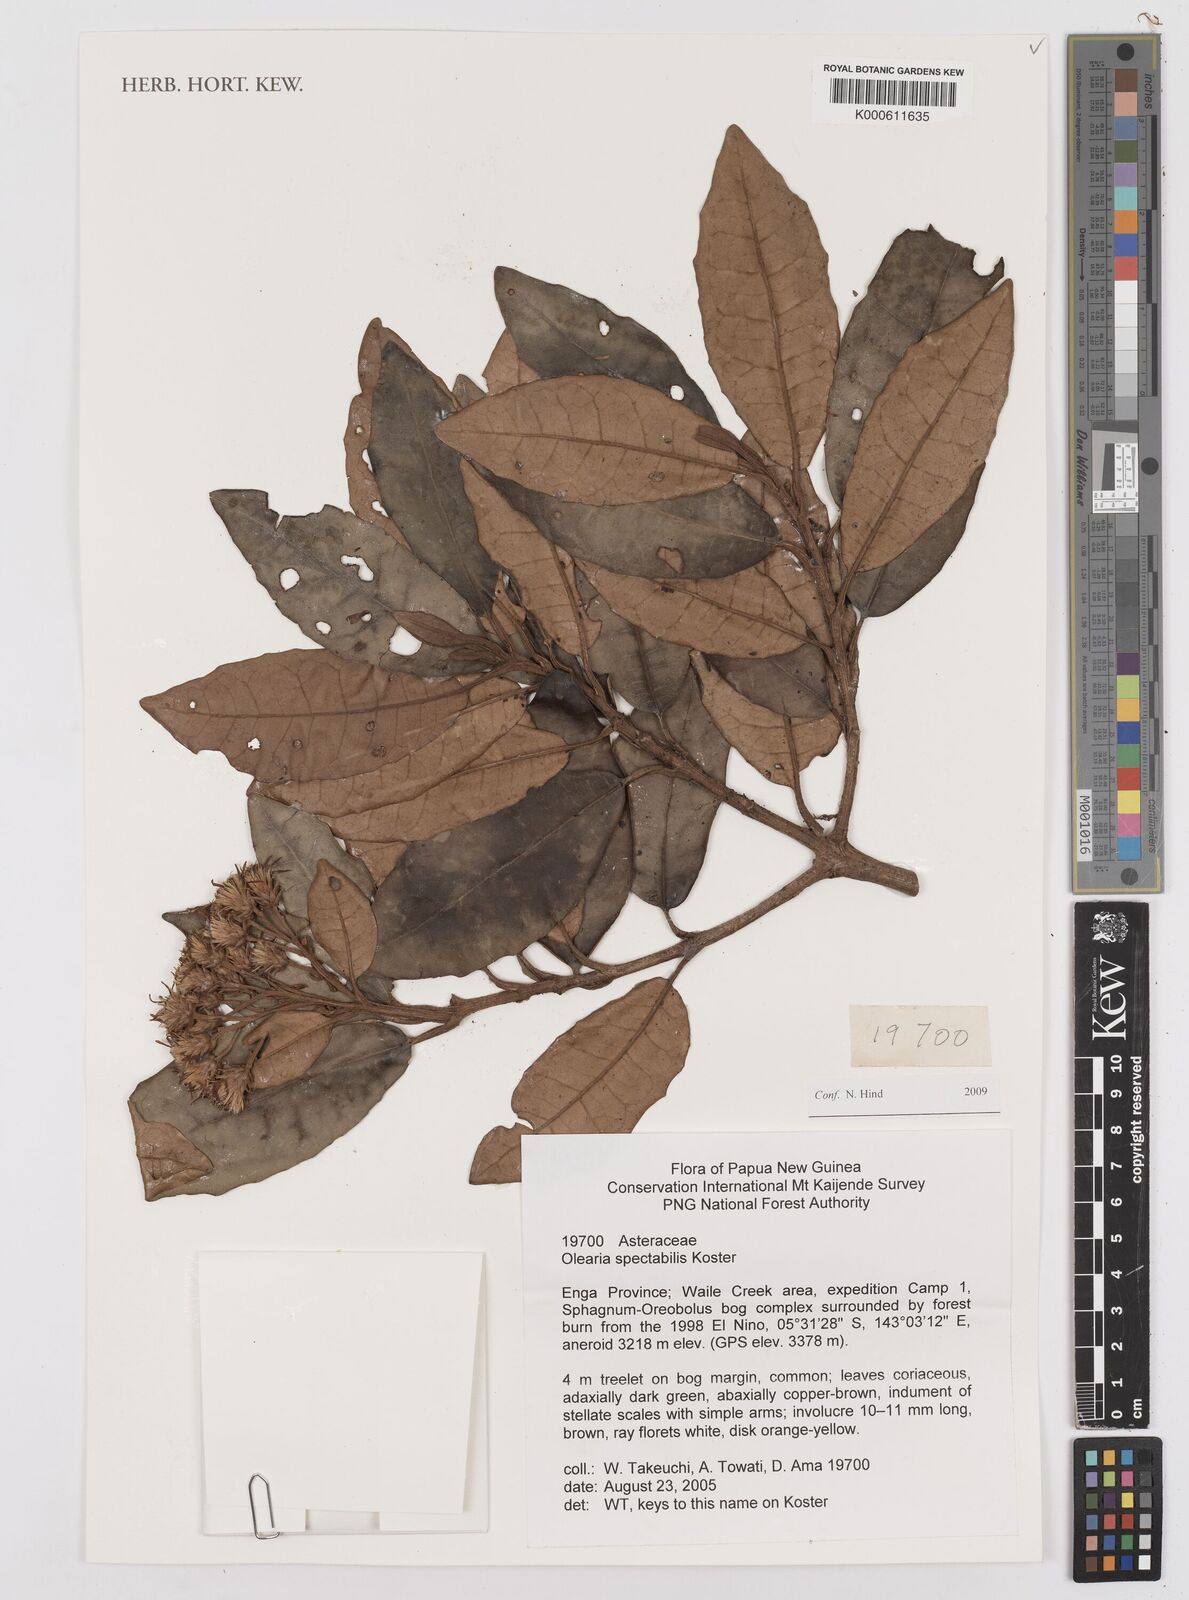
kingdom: Plantae
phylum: Tracheophyta
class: Magnoliopsida
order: Asterales
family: Asteraceae
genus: Olearia
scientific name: Olearia spectabilis
